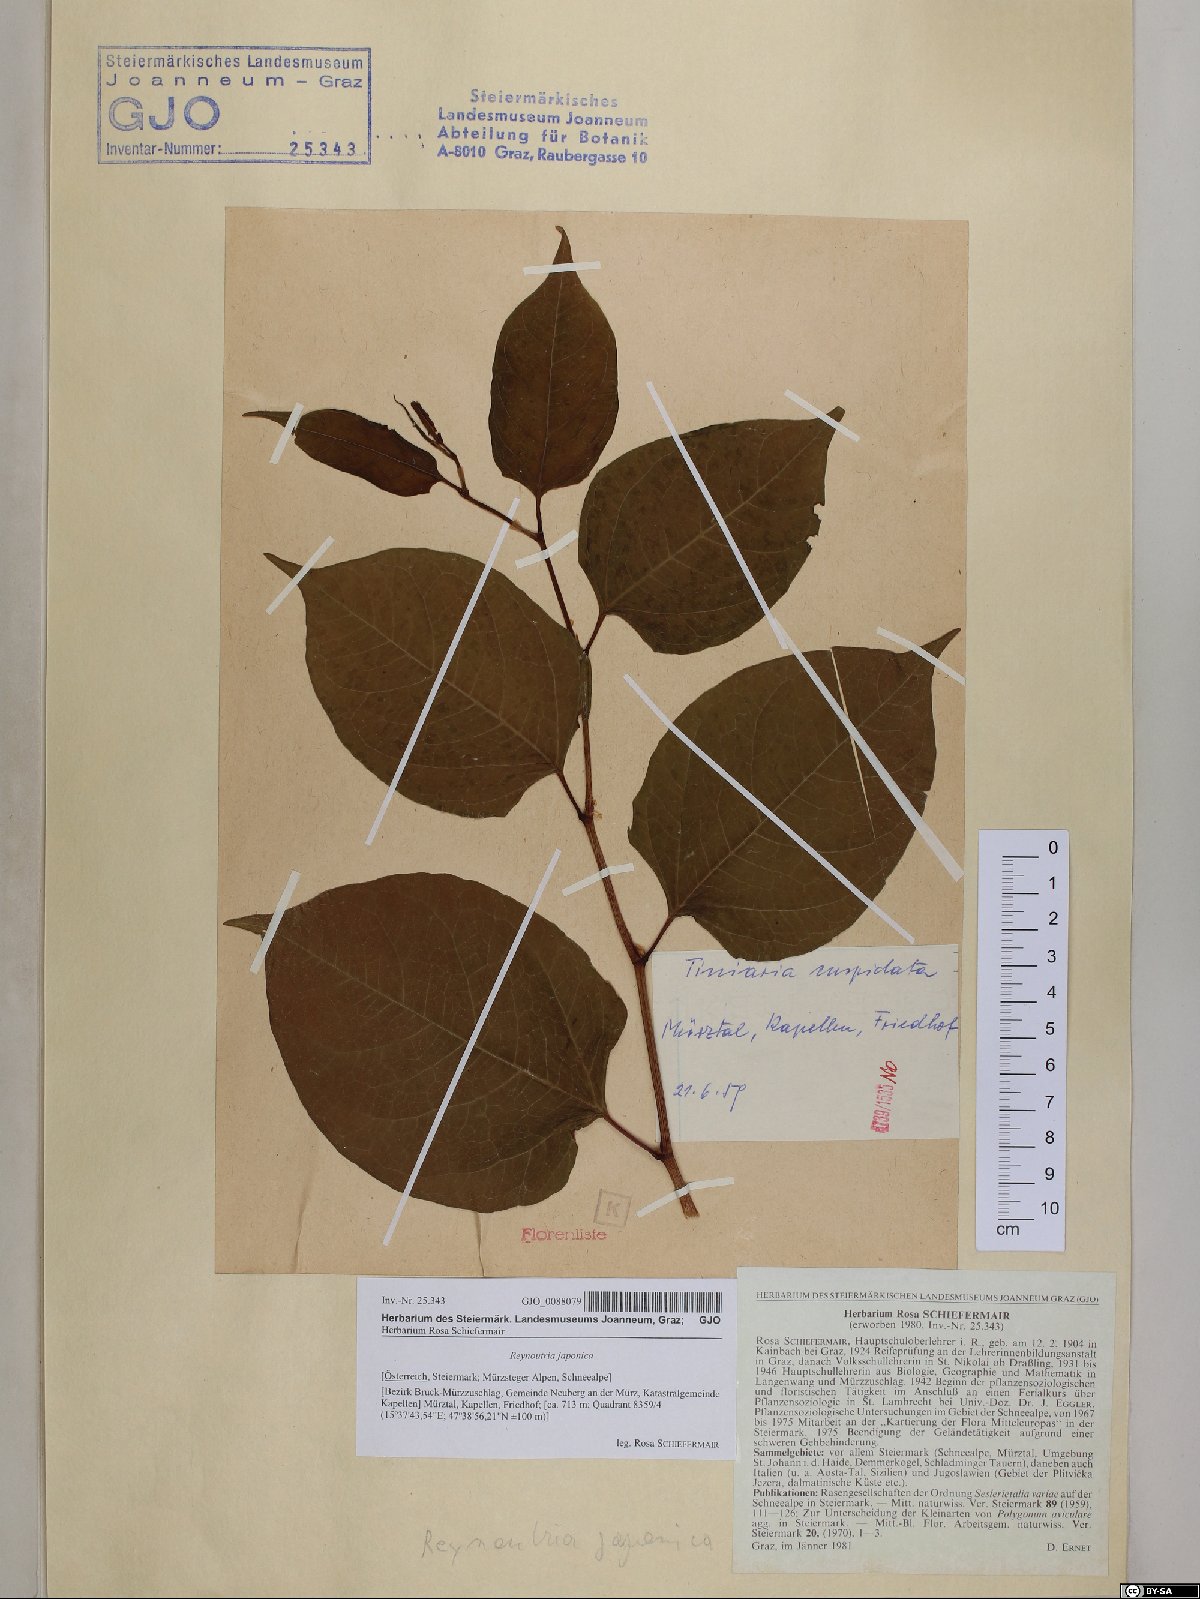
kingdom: Plantae
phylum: Tracheophyta
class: Magnoliopsida
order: Caryophyllales
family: Polygonaceae
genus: Reynoutria
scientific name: Reynoutria japonica
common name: Japanese knotweed
